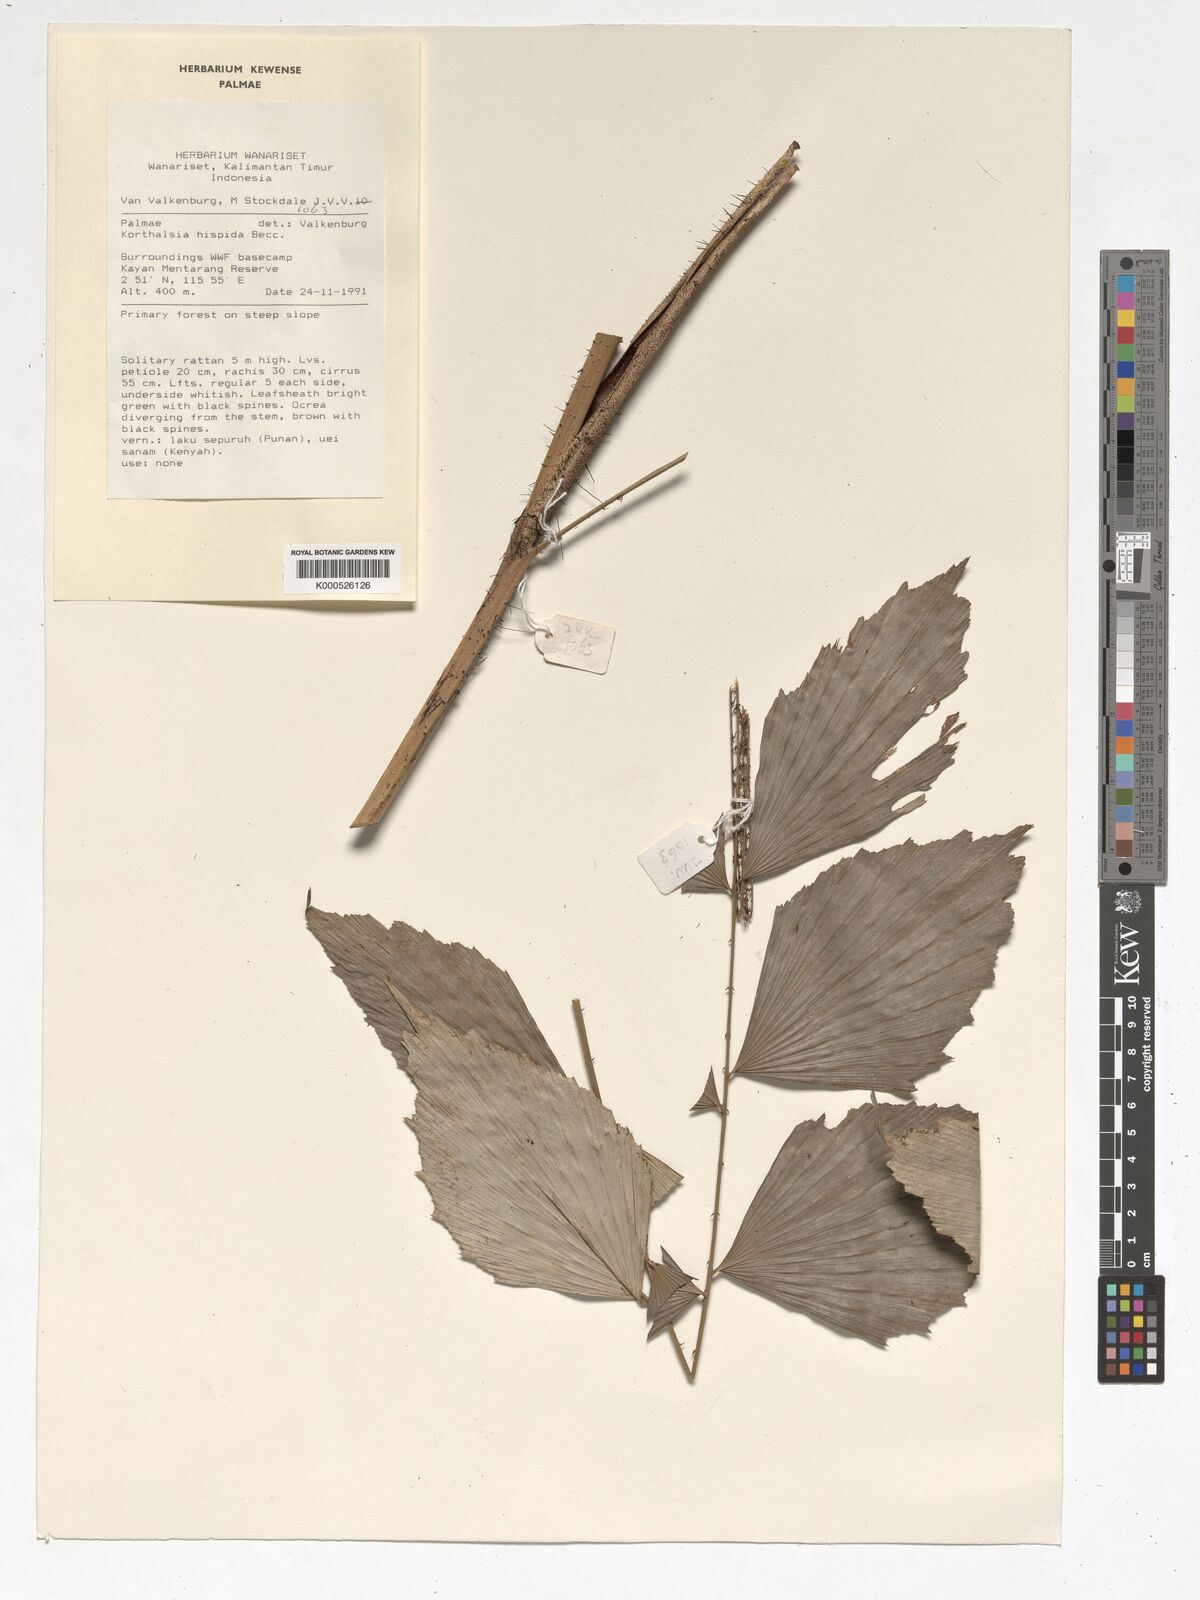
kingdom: Plantae
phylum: Tracheophyta
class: Liliopsida
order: Arecales
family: Arecaceae
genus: Korthalsia
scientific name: Korthalsia hispida
